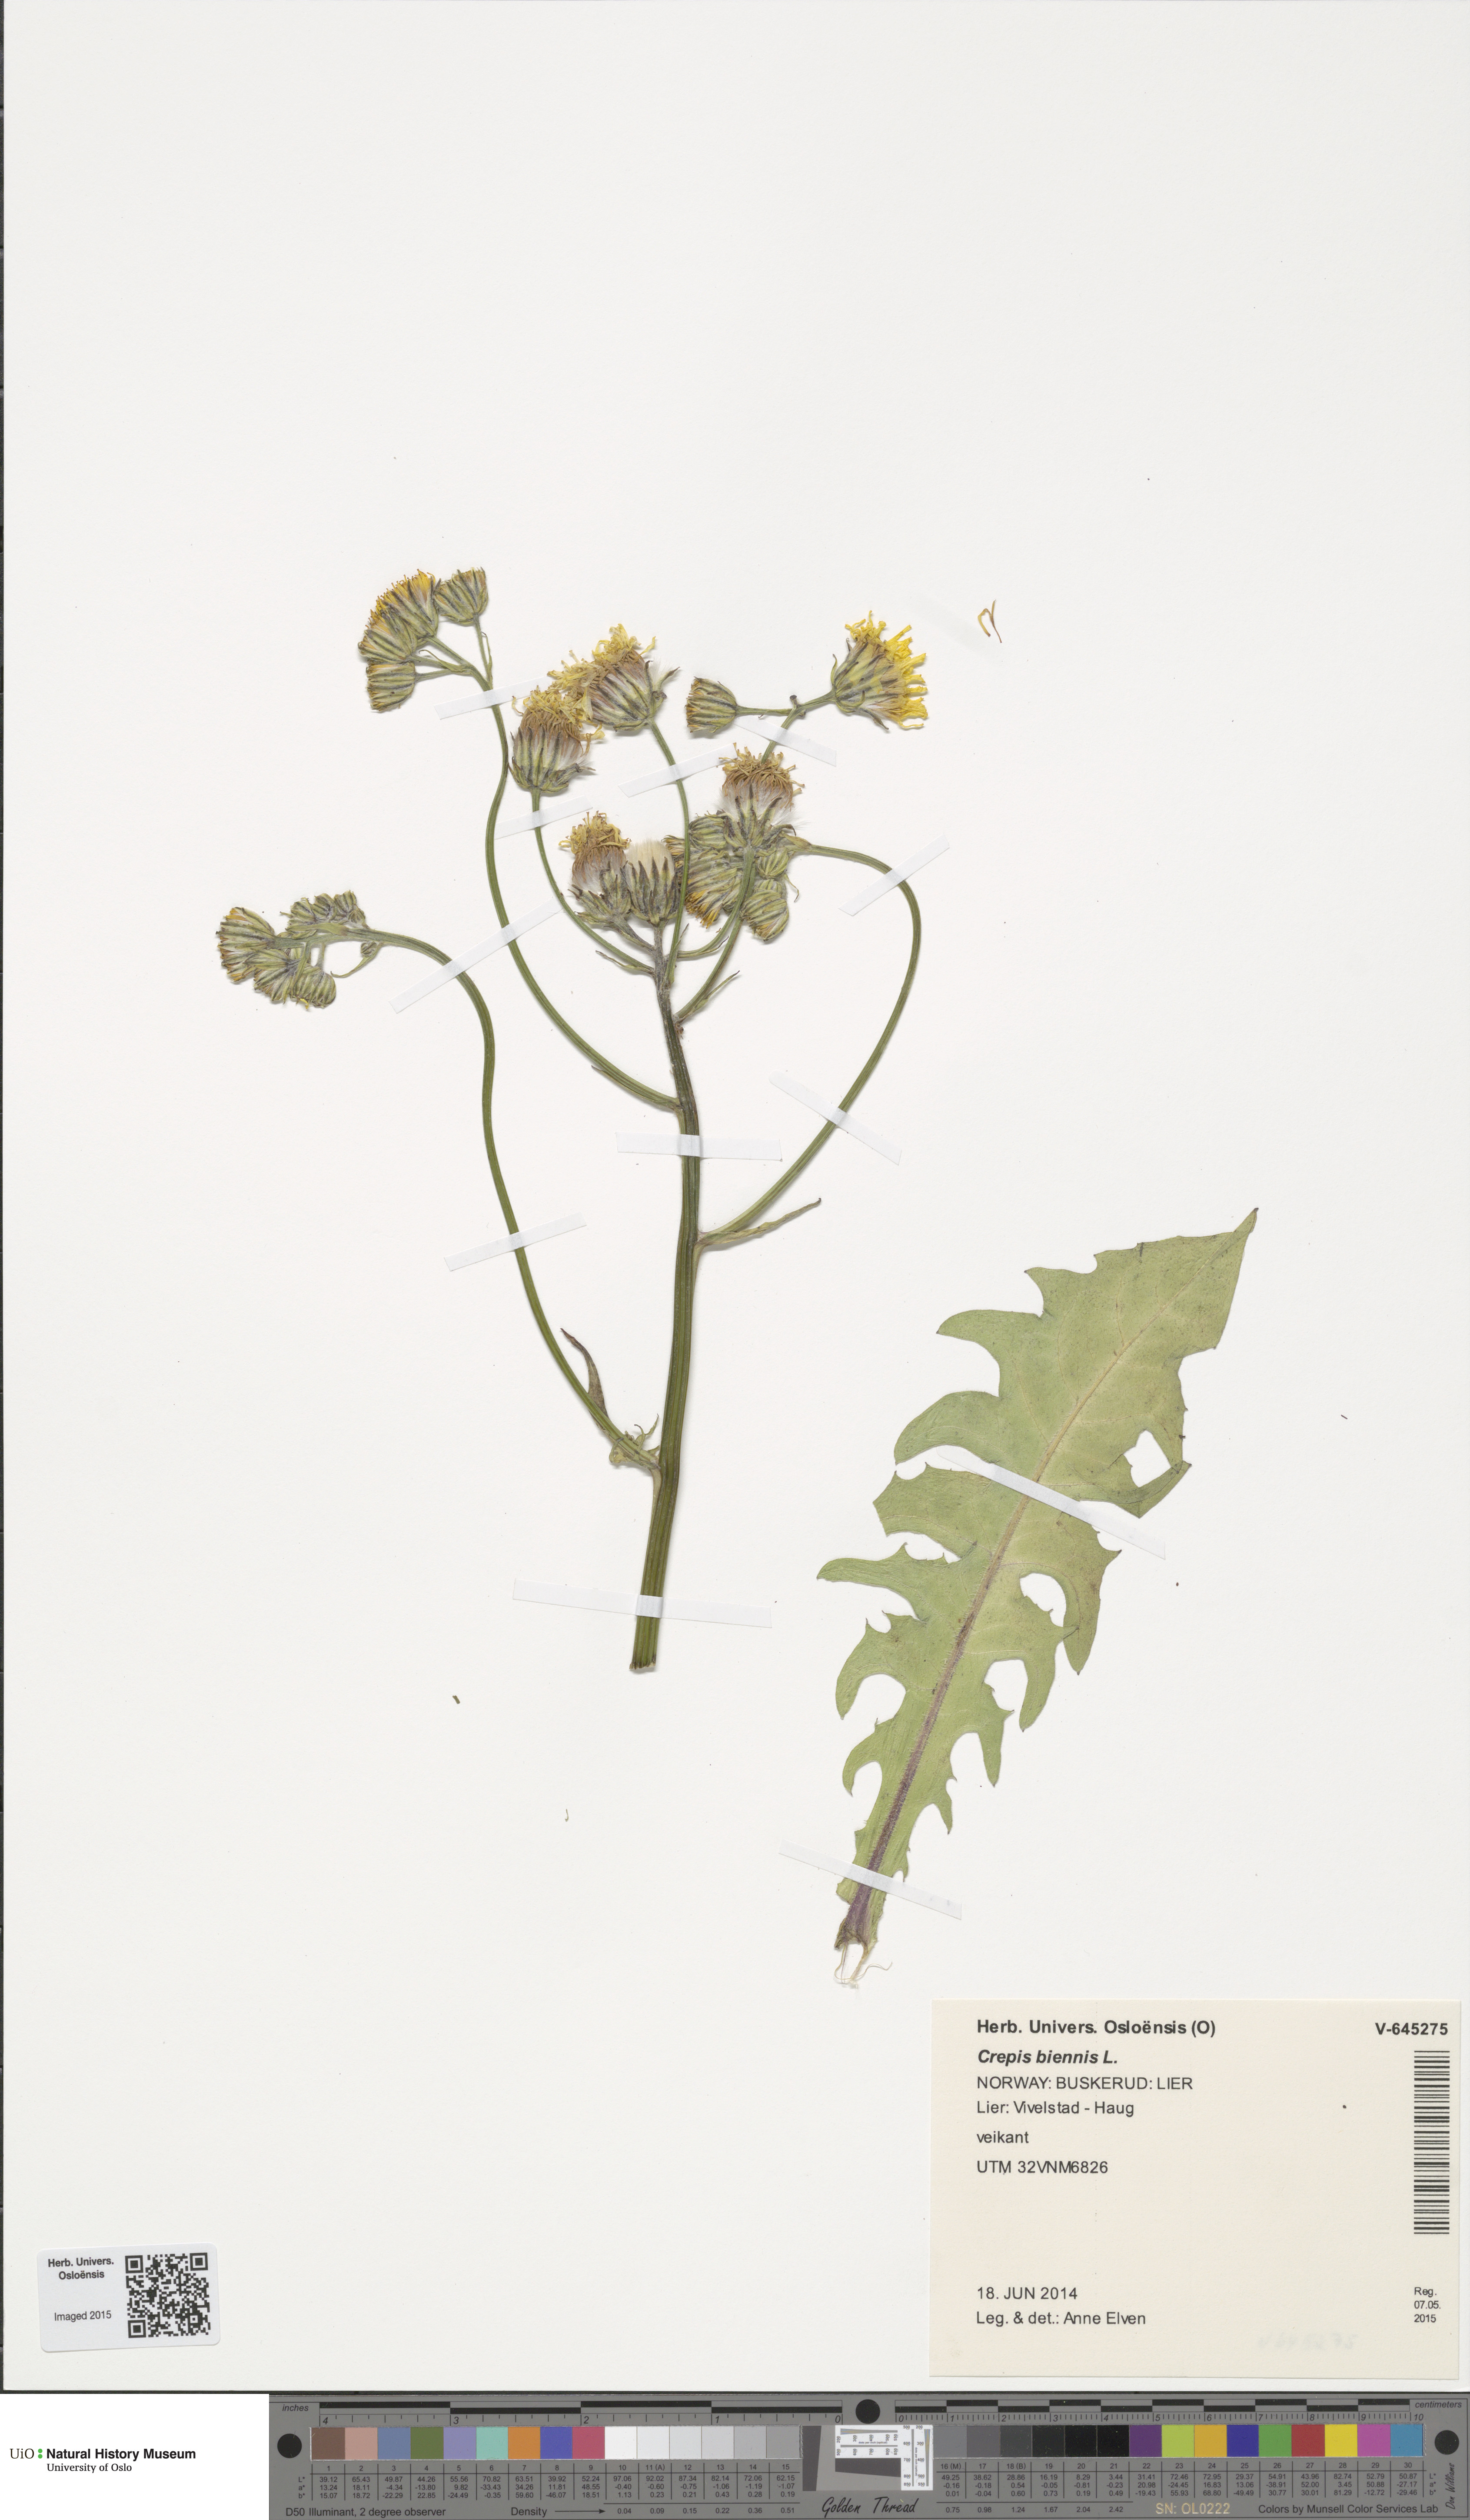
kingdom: Plantae
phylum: Tracheophyta
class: Magnoliopsida
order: Asterales
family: Asteraceae
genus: Crepis
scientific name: Crepis biennis
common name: Rough hawk's-beard
